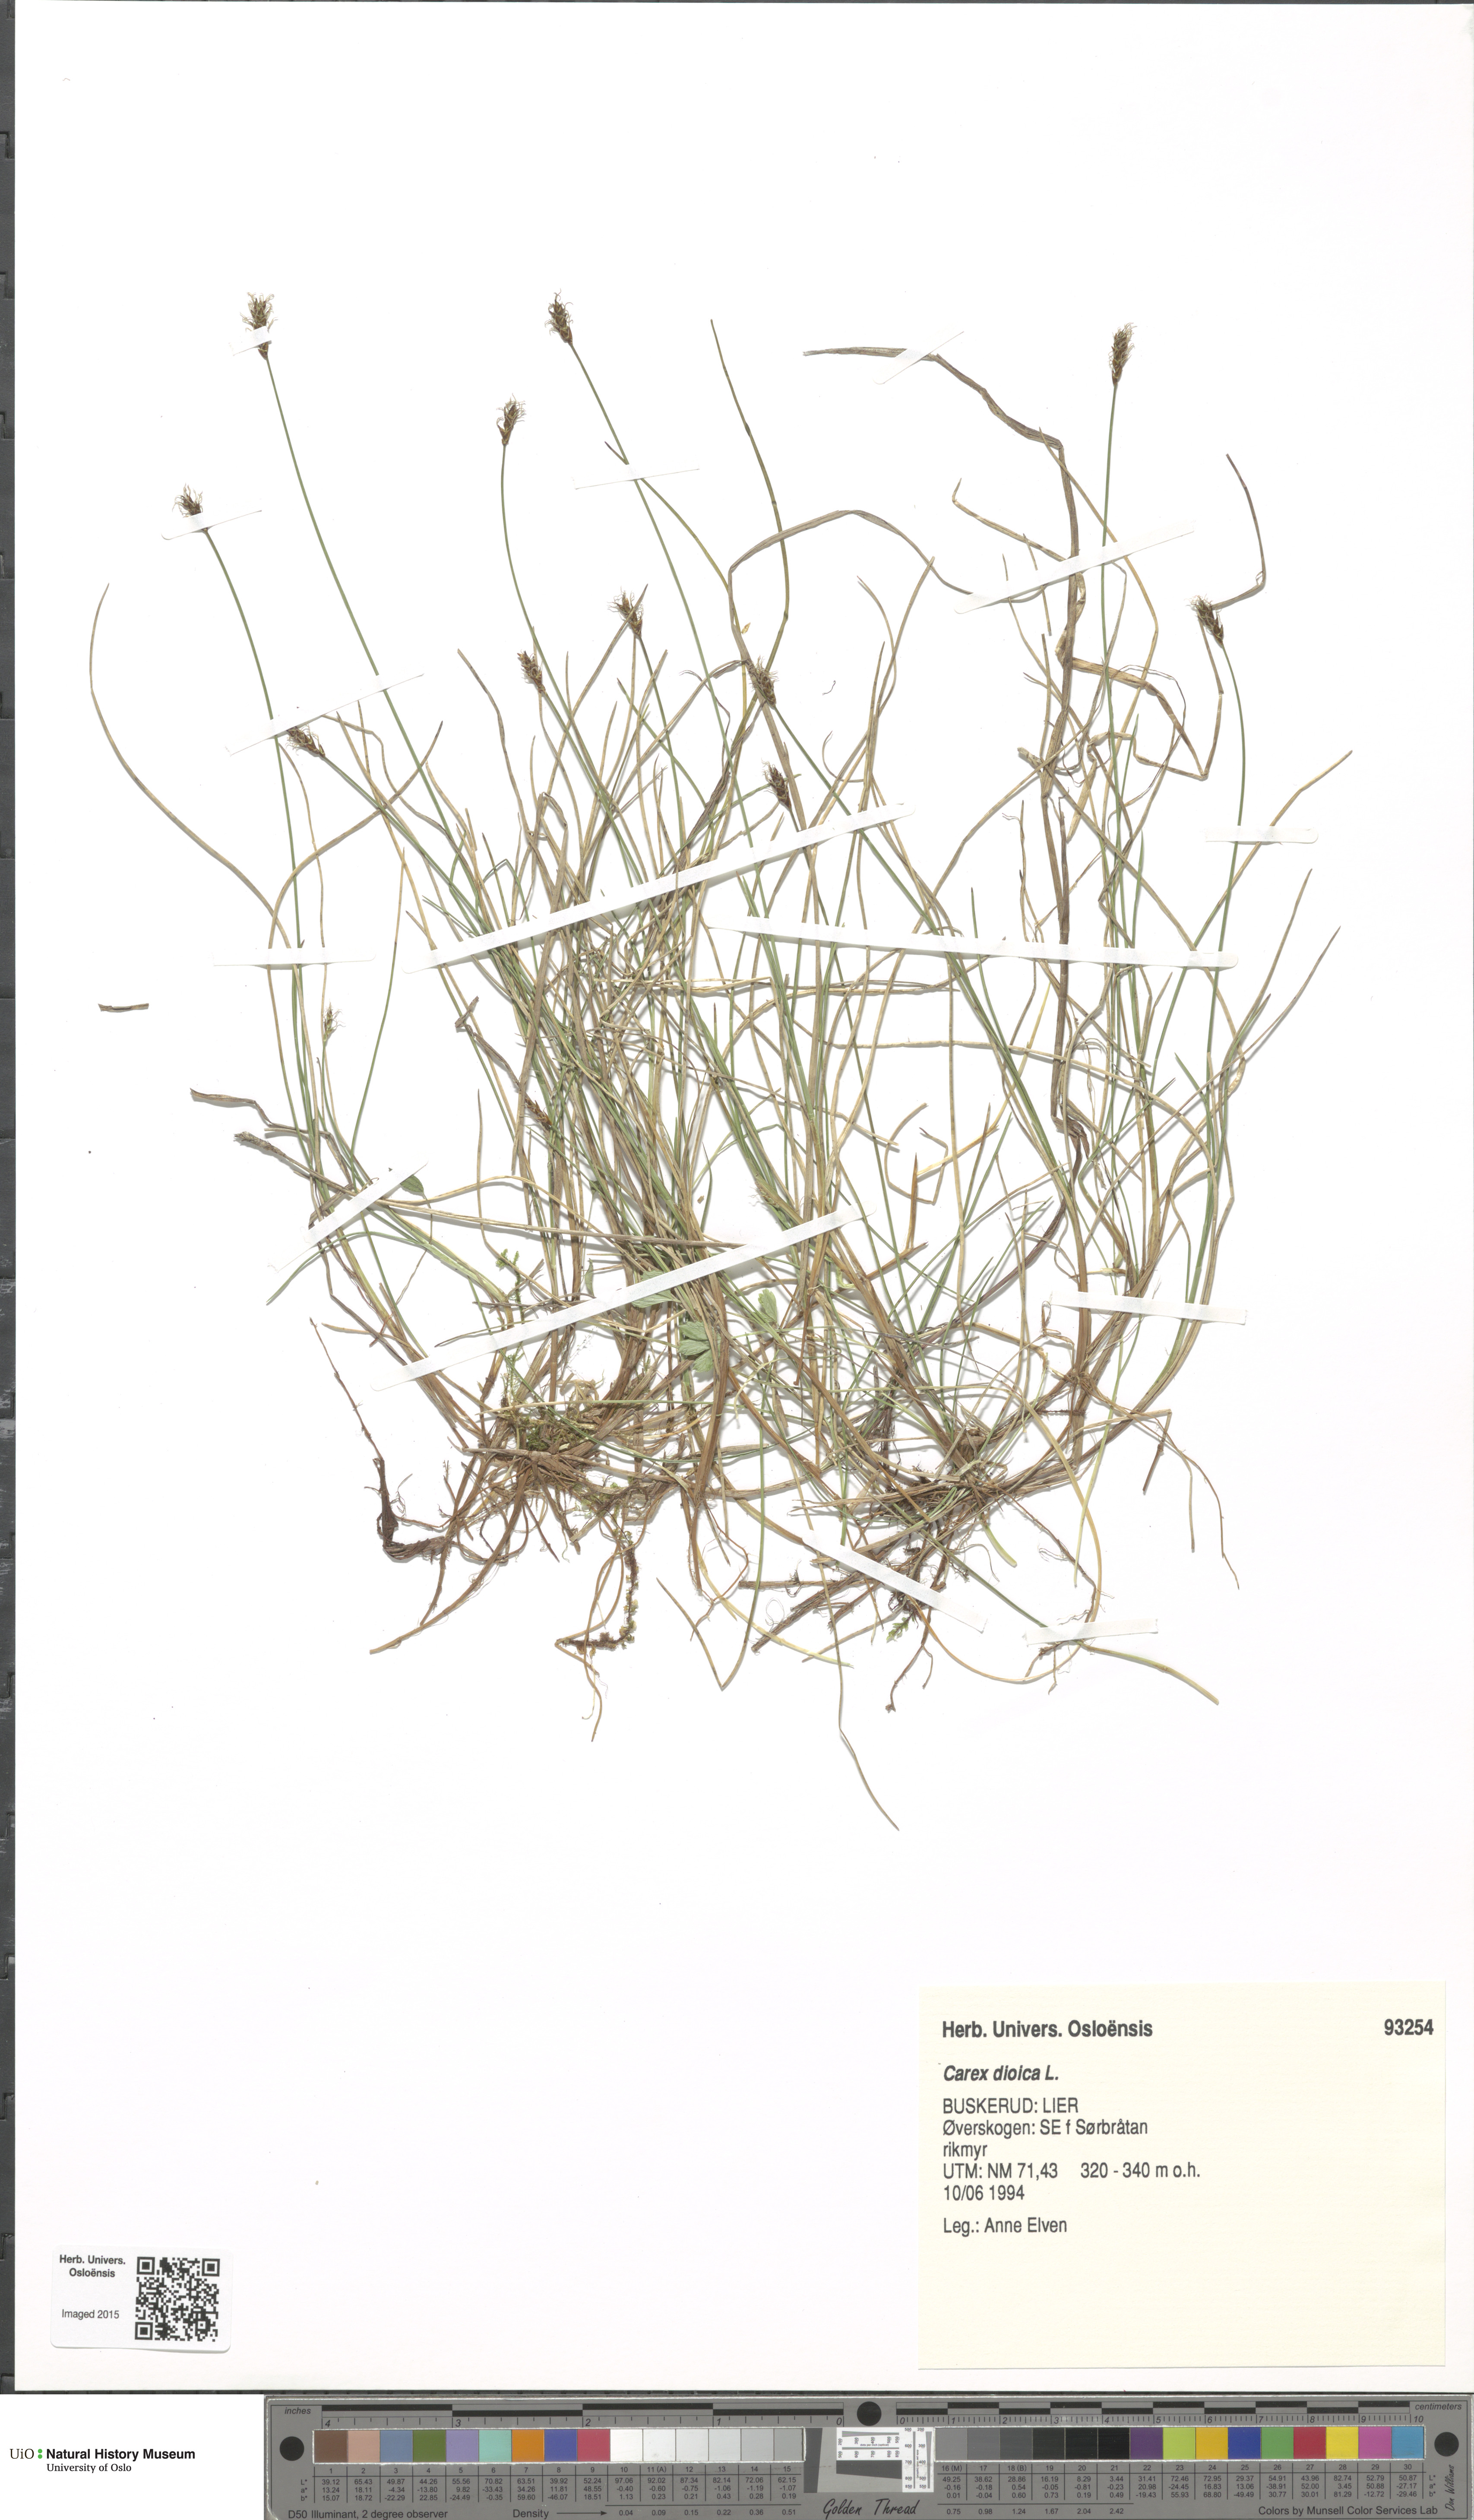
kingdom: Plantae
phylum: Tracheophyta
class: Liliopsida
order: Poales
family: Cyperaceae
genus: Carex
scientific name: Carex dioica
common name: Dioecious sedge
